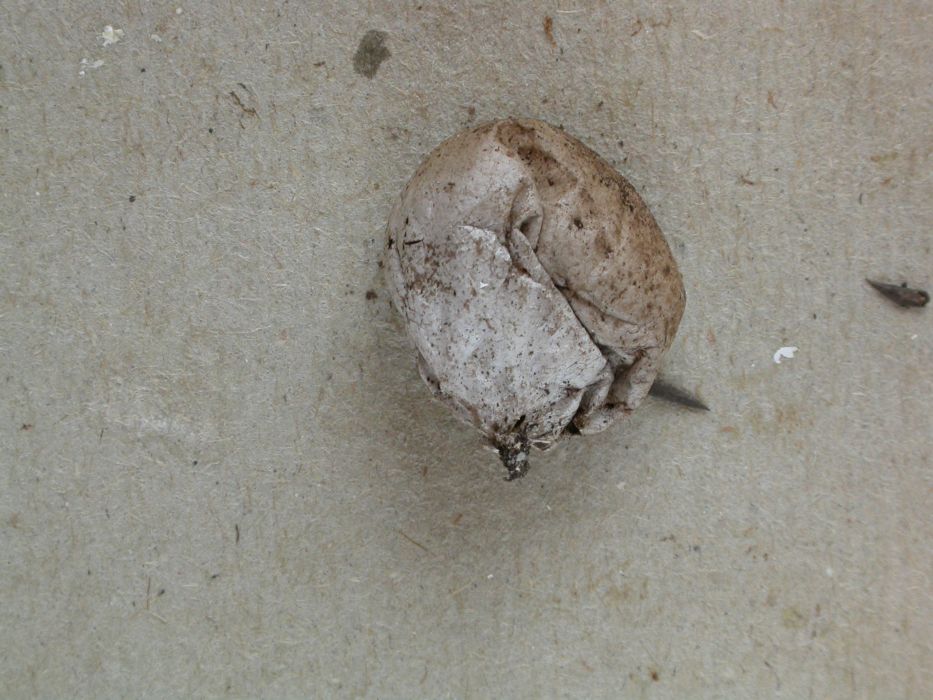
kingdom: Fungi
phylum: Basidiomycota
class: Agaricomycetes
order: Agaricales
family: Lycoperdaceae
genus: Bovista
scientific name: Bovista furfuracea
